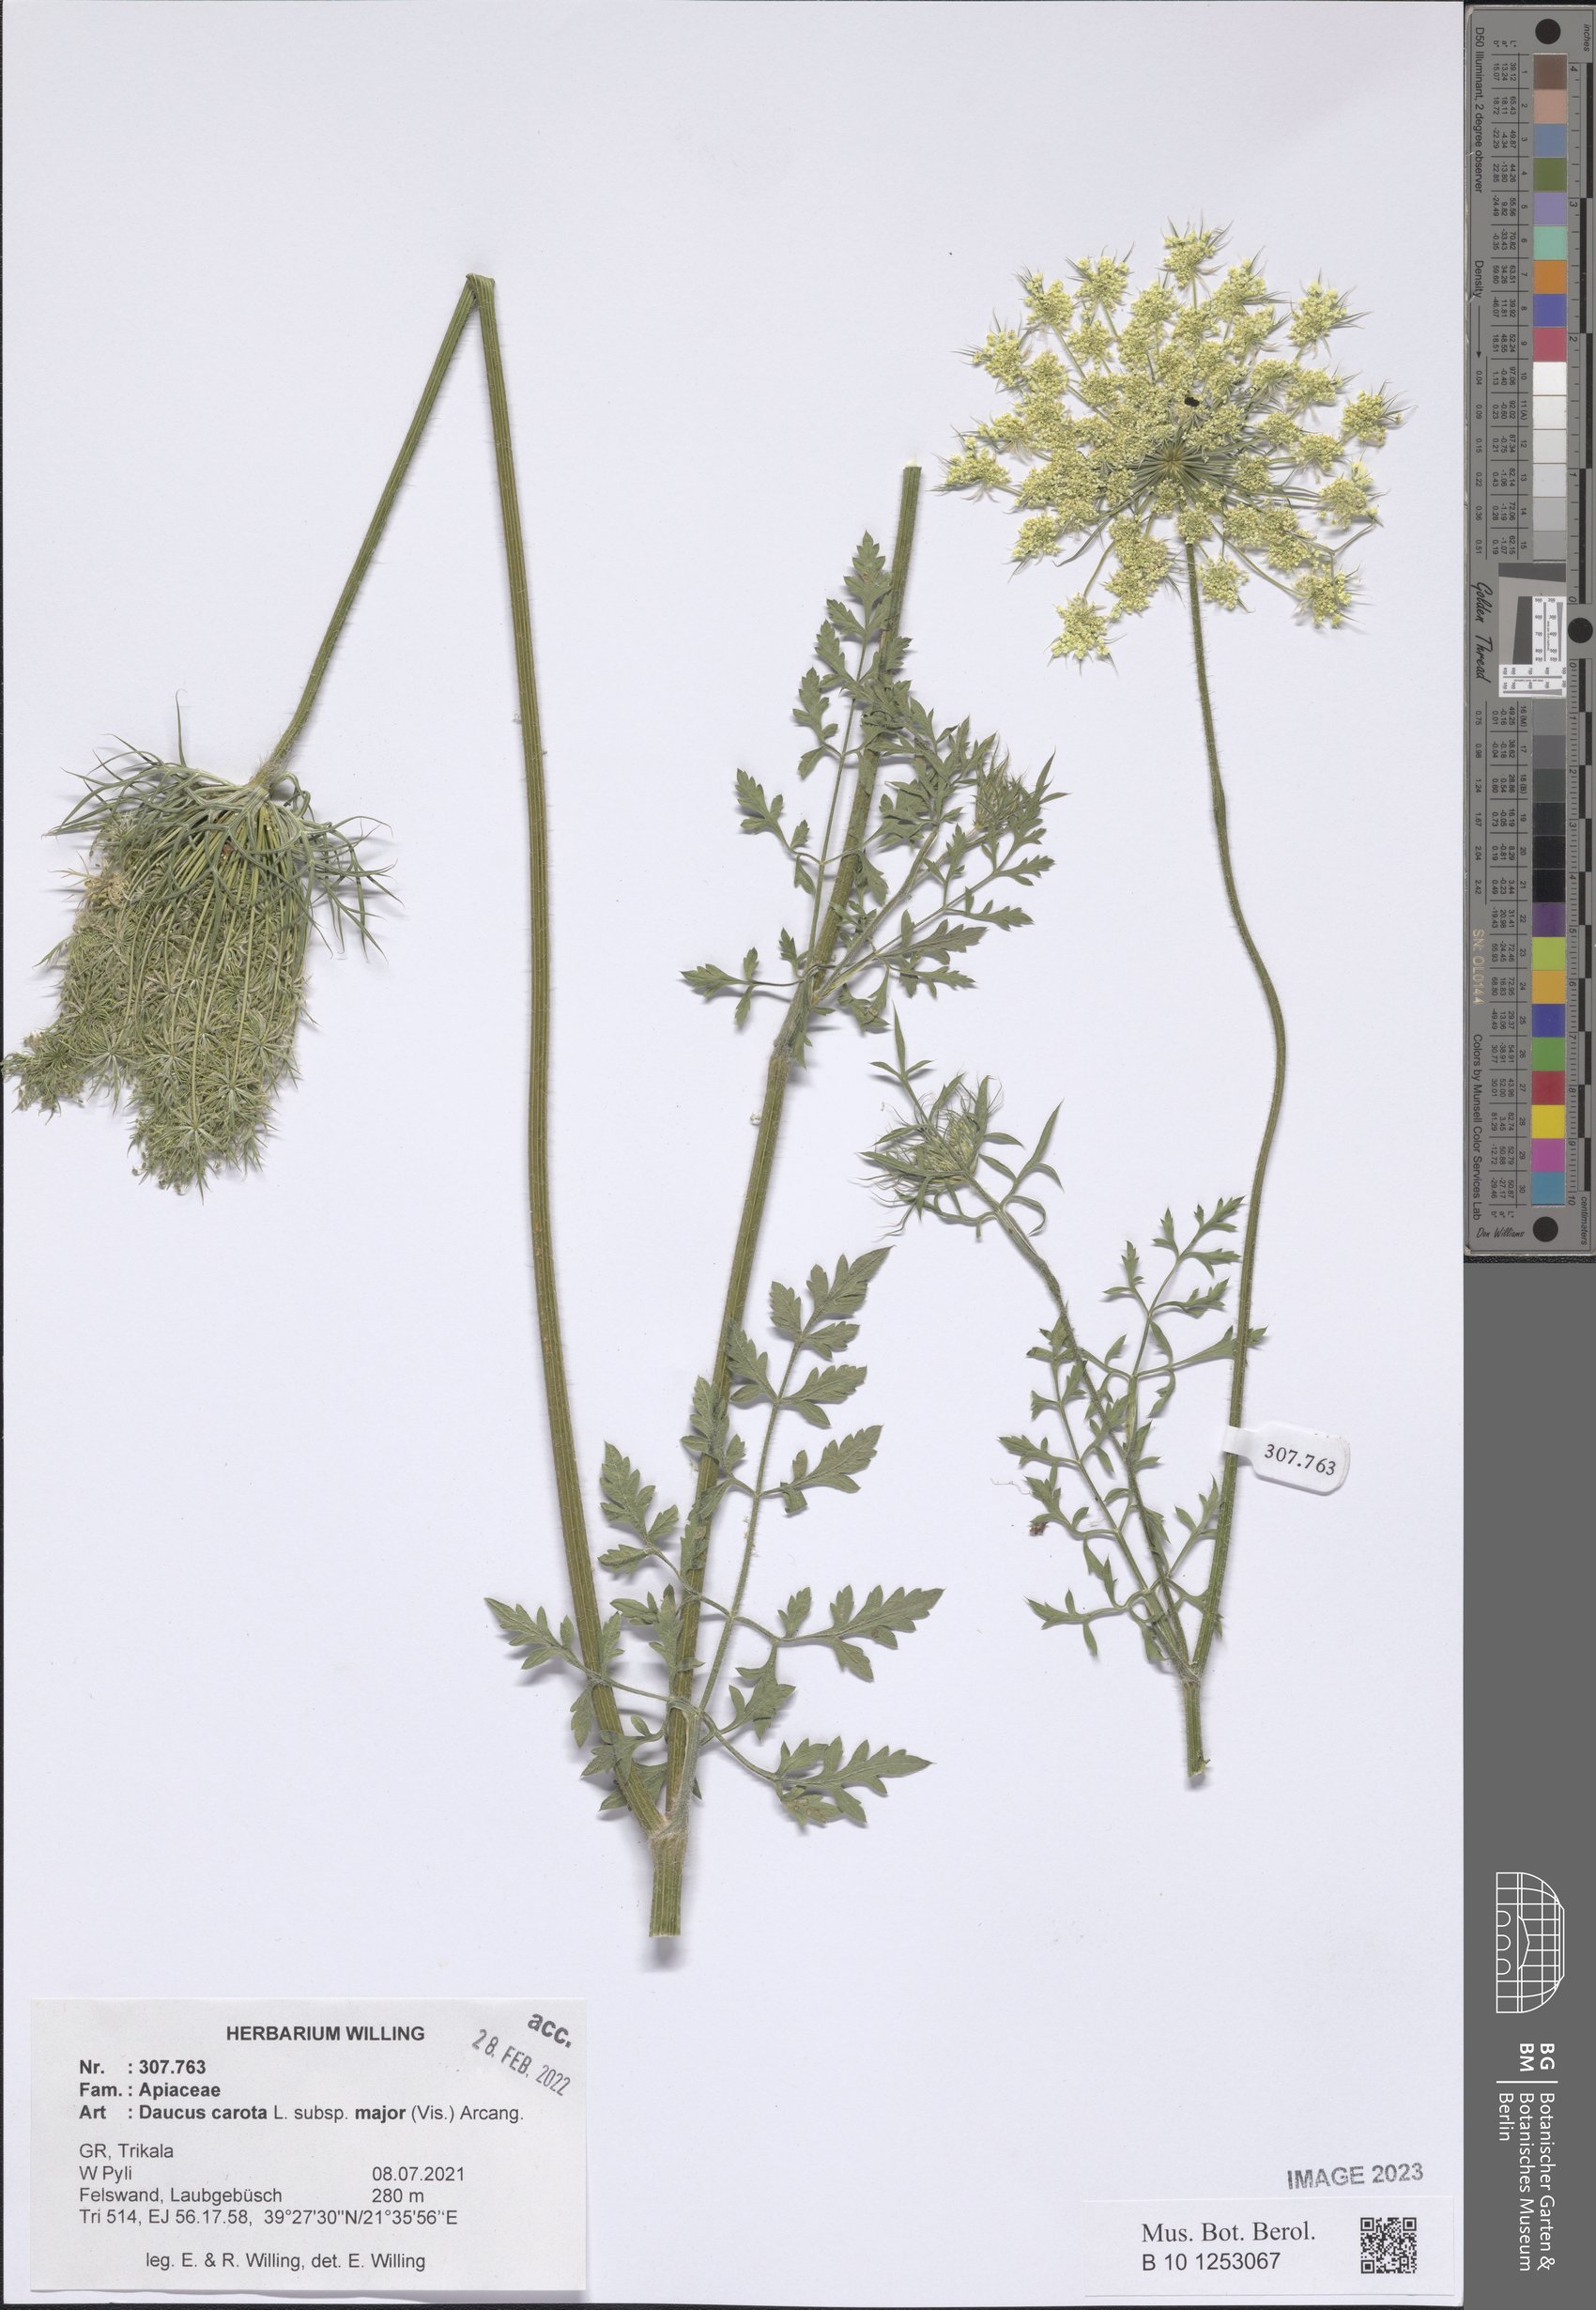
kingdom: Plantae
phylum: Tracheophyta
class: Magnoliopsida
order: Apiales
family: Apiaceae
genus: Daucus
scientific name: Daucus carota
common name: Wild carrot
